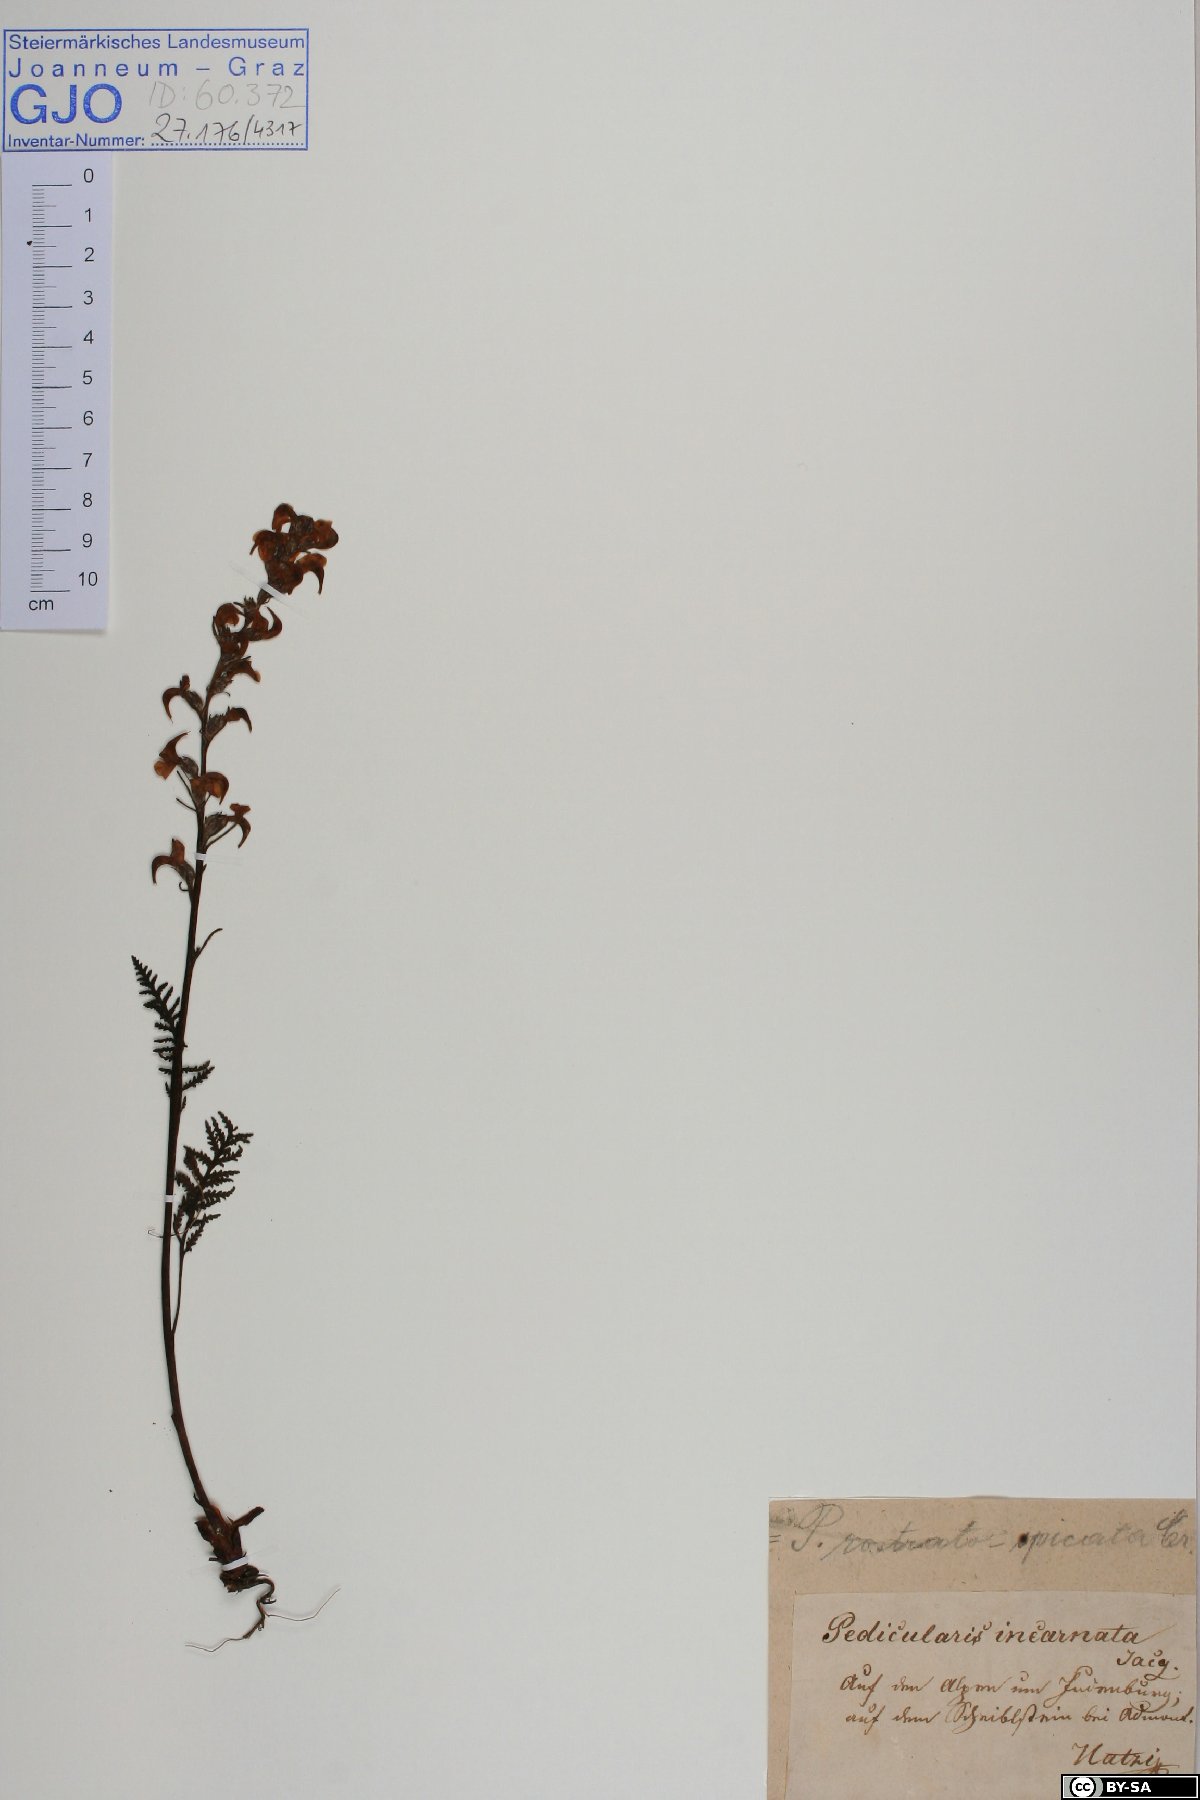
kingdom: Plantae
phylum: Tracheophyta
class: Magnoliopsida
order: Lamiales
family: Orobanchaceae
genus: Pedicularis
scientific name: Pedicularis rostratospicata
